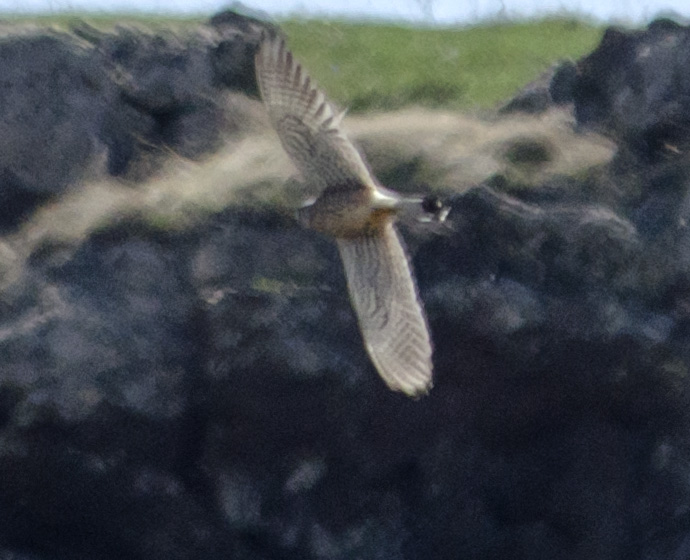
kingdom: Animalia
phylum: Chordata
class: Aves
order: Falconiformes
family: Falconidae
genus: Falco
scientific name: Falco tinnunculus
